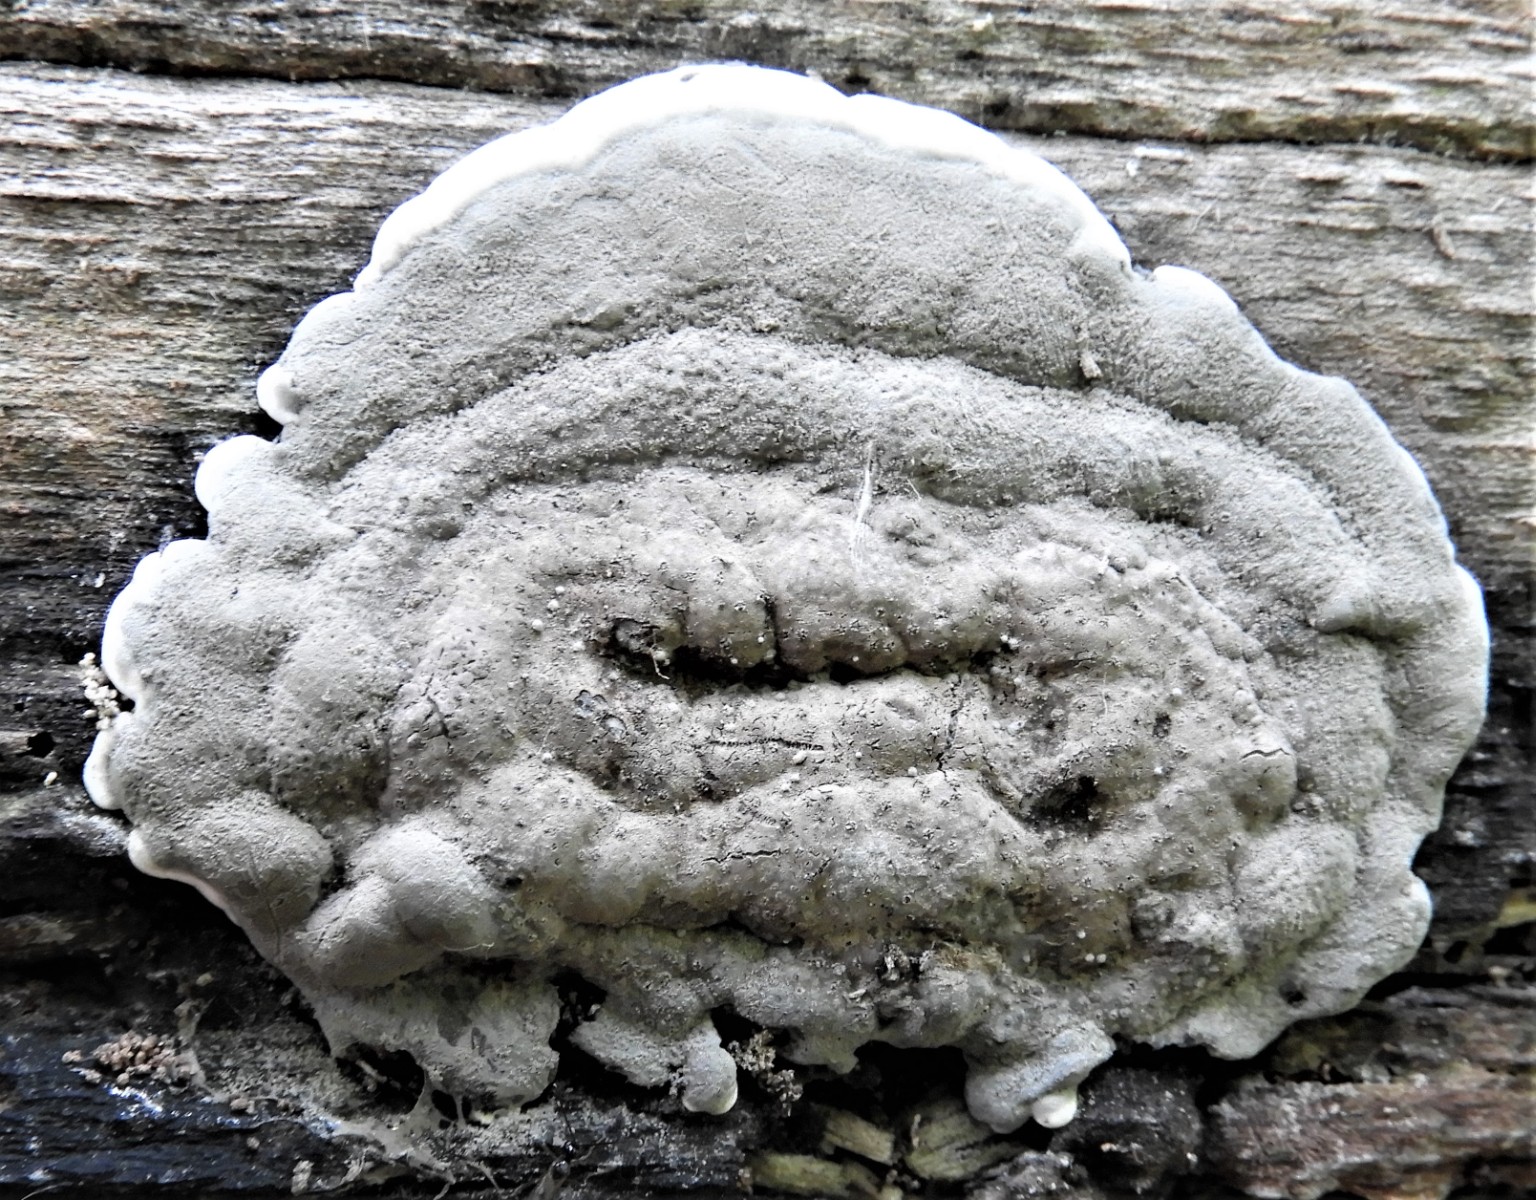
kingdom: Fungi
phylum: Ascomycota
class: Sordariomycetes
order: Xylariales
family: Xylariaceae
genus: Kretzschmaria
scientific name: Kretzschmaria deusta
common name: stor kulsvamp
